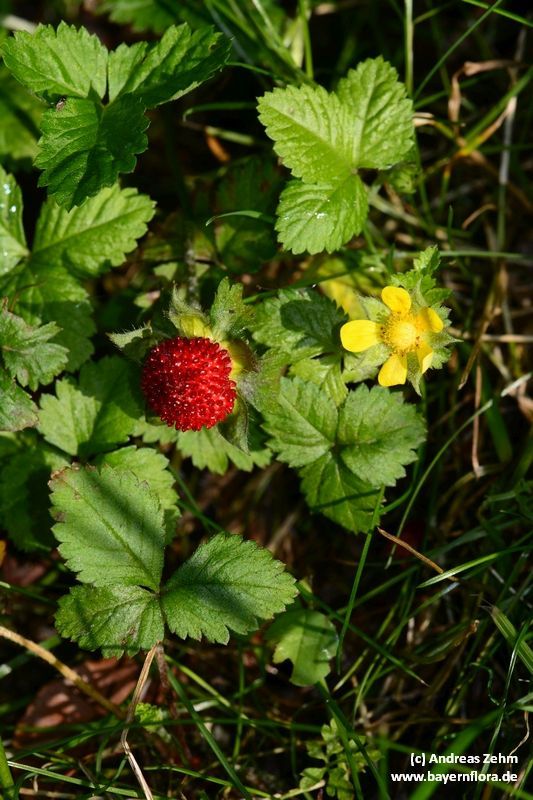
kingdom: Plantae
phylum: Tracheophyta
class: Magnoliopsida
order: Rosales
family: Rosaceae
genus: Potentilla
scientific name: Potentilla indica
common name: Yellow-flowered strawberry
